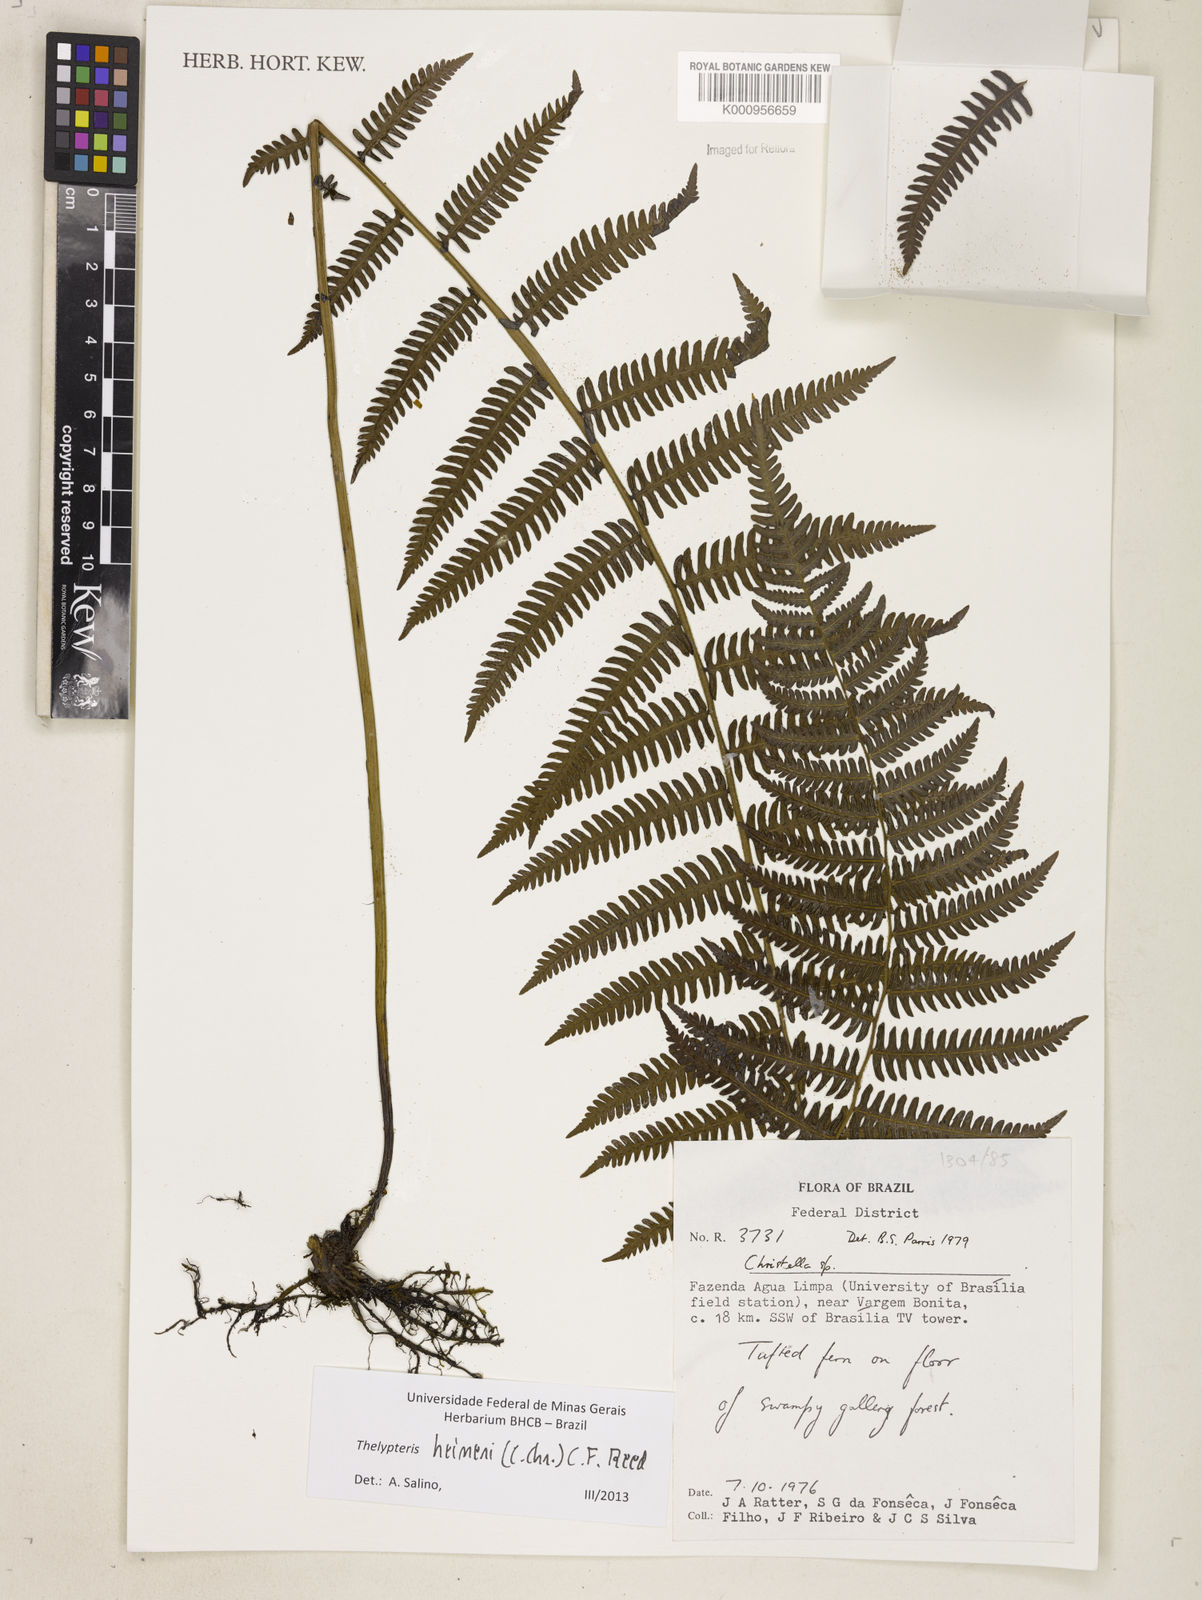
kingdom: Plantae
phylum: Tracheophyta
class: Polypodiopsida
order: Polypodiales
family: Thelypteridaceae
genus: Amauropelta
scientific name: Amauropelta heineri
